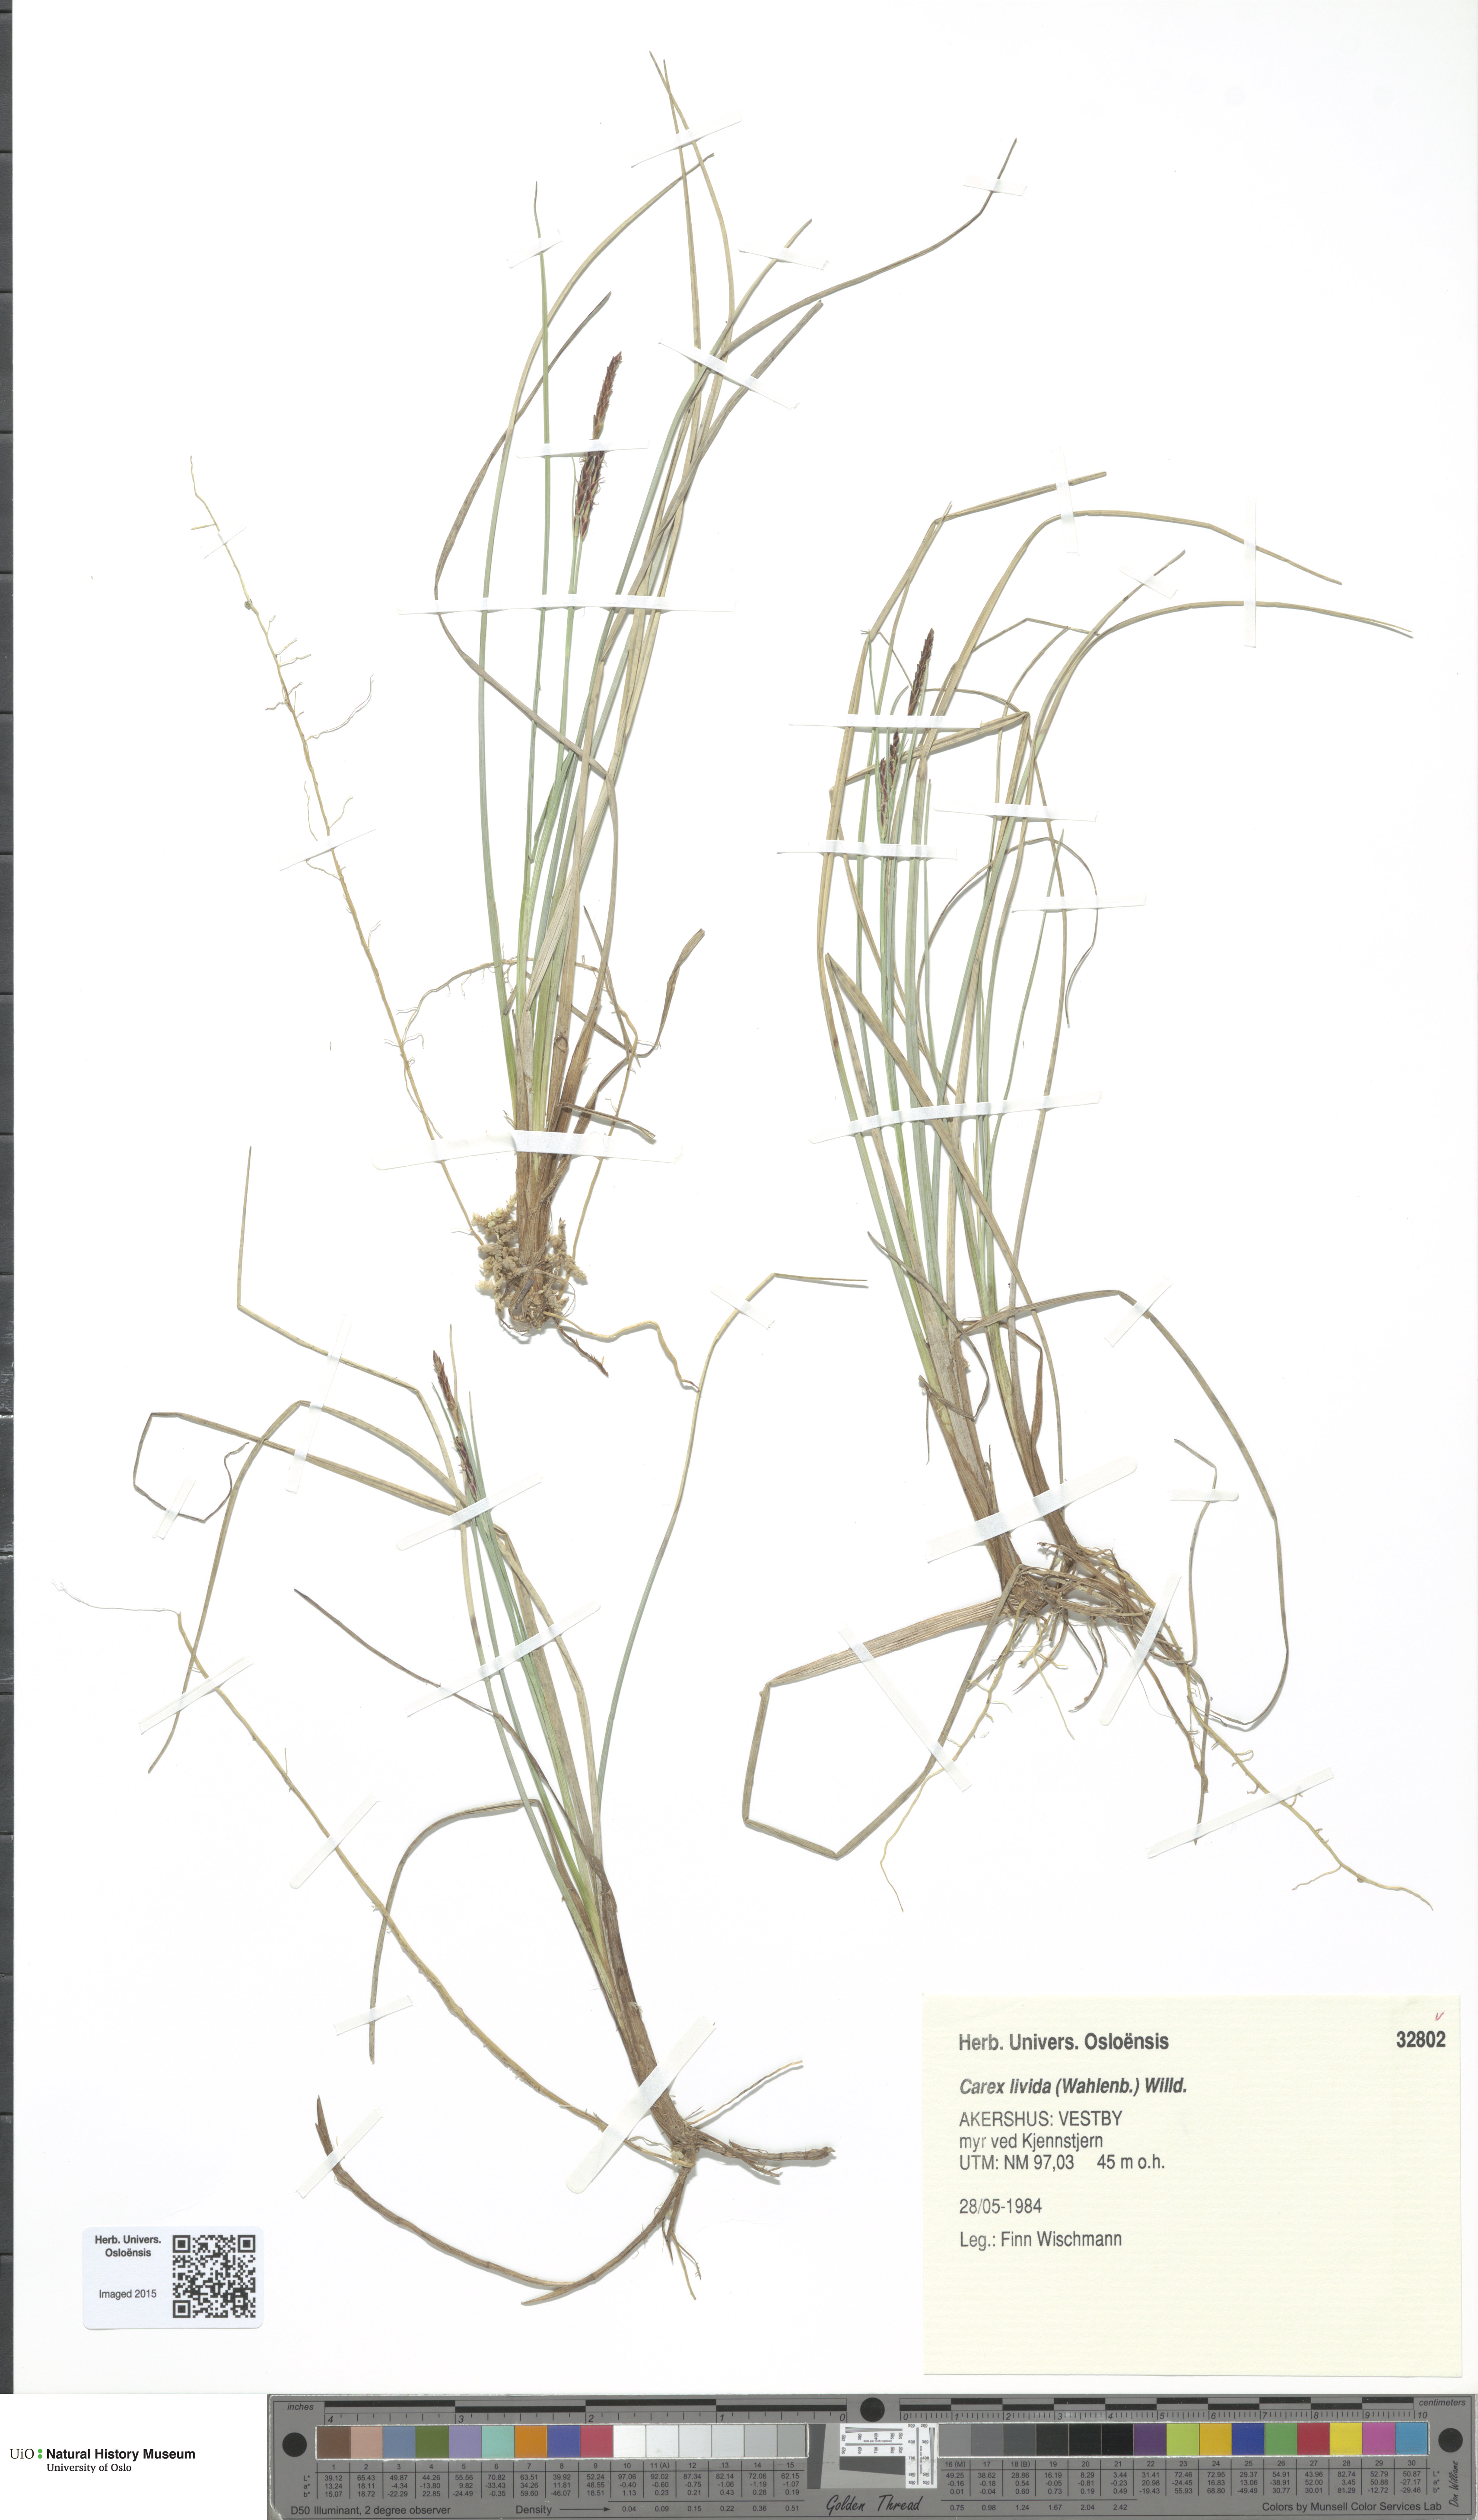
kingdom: Plantae
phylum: Tracheophyta
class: Liliopsida
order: Poales
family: Cyperaceae
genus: Carex
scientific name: Carex livida
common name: Livid sedge
